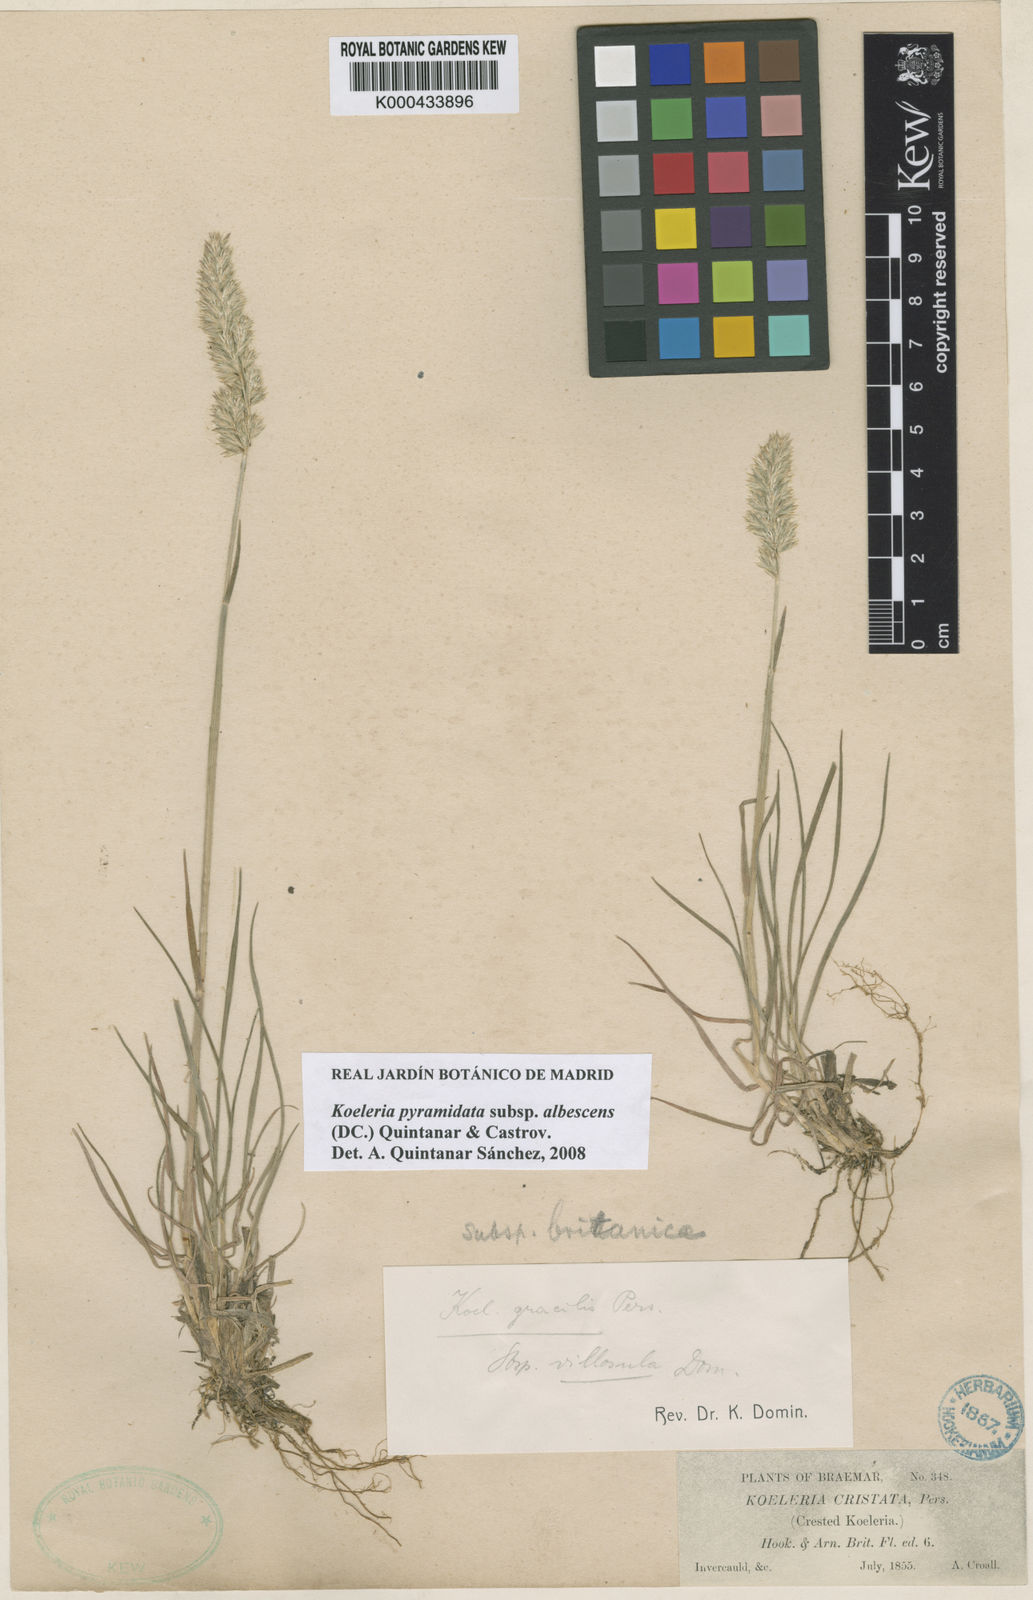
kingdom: Plantae
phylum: Tracheophyta
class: Liliopsida
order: Poales
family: Poaceae
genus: Koeleria
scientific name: Koeleria macrantha
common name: Crested hair-grass
